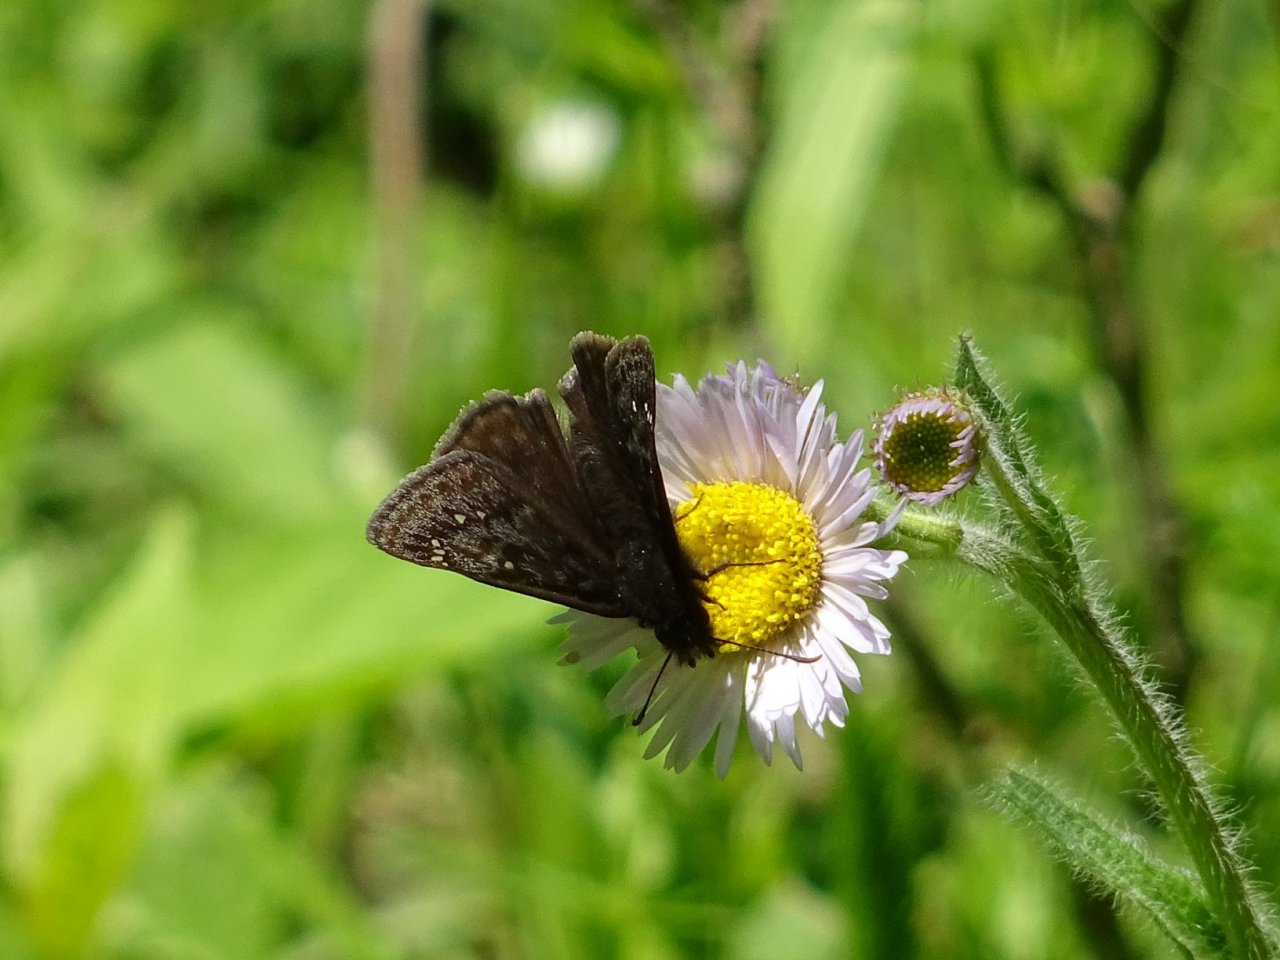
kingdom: Animalia
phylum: Arthropoda
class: Insecta
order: Lepidoptera
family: Hesperiidae
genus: Gesta
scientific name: Gesta
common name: Juvenal's Duskywing
